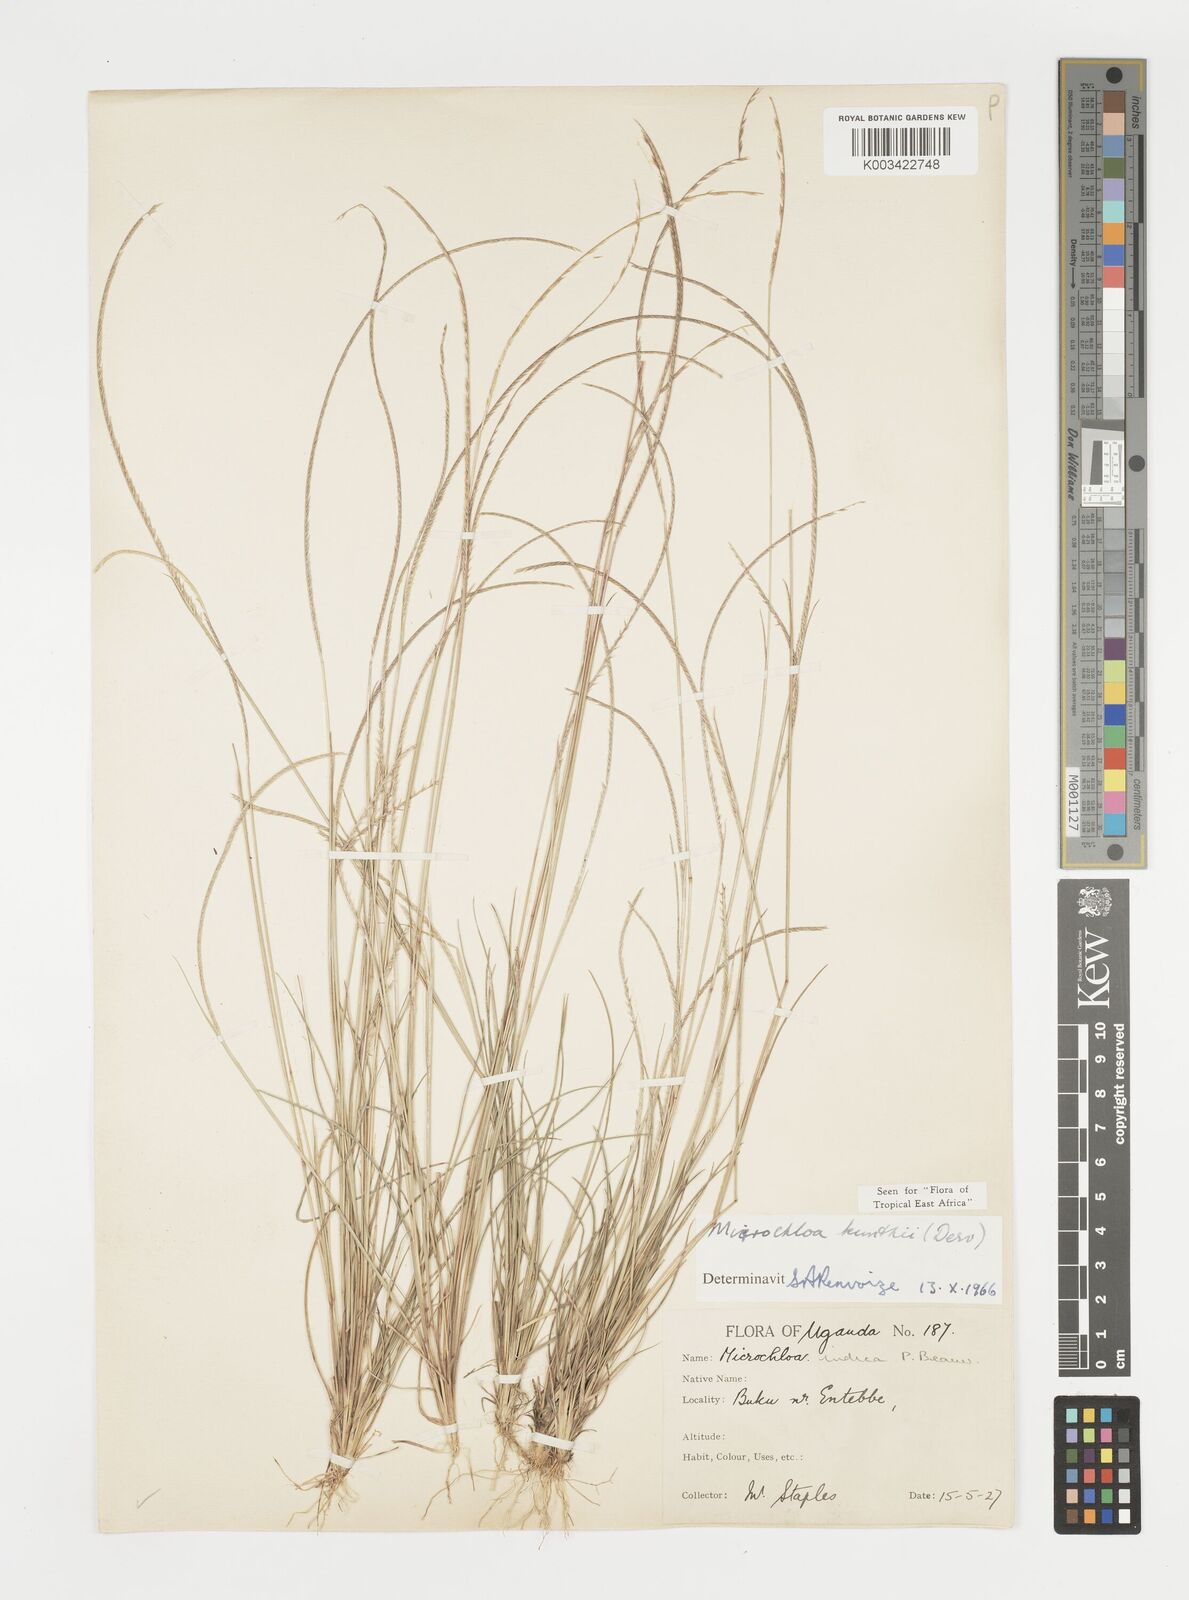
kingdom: Plantae
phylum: Tracheophyta
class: Liliopsida
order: Poales
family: Poaceae
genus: Microchloa
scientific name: Microchloa kunthii
